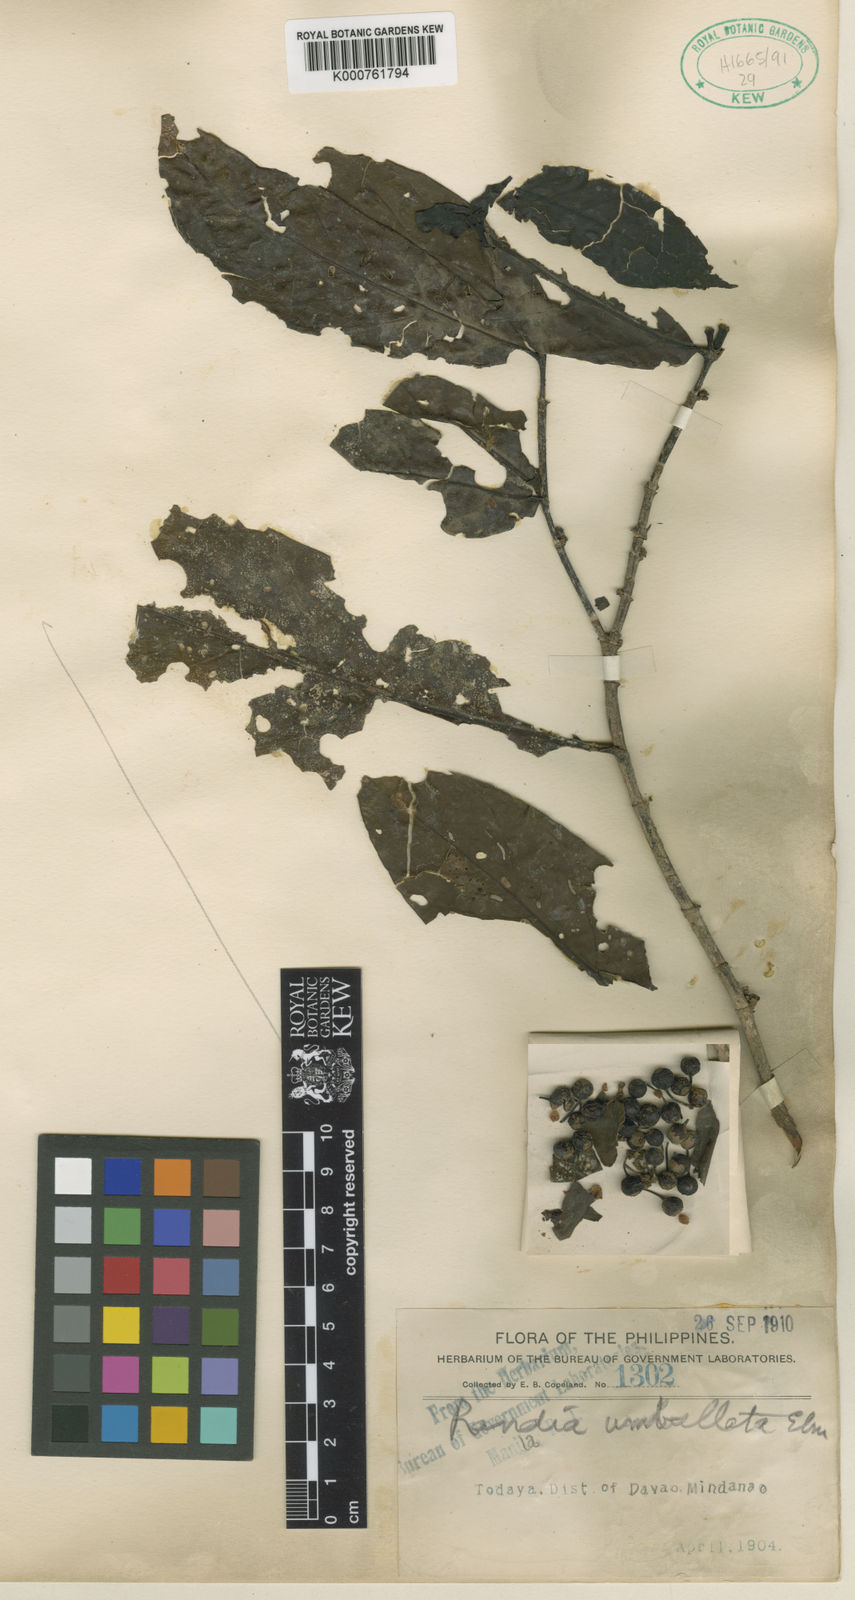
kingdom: Plantae
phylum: Tracheophyta
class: Magnoliopsida
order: Gentianales
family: Rubiaceae
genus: Aidia
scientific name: Aidia acuminata
